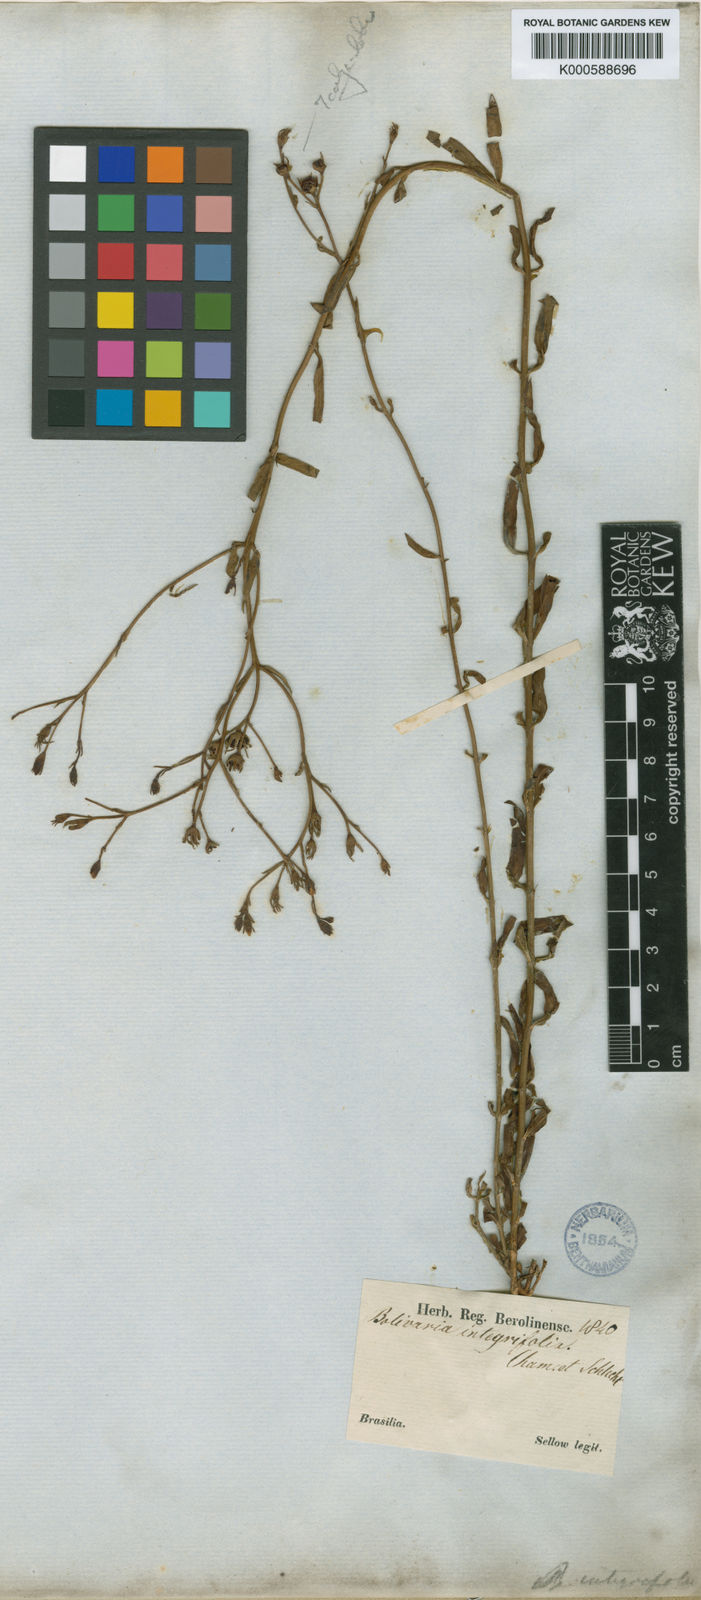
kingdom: Plantae
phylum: Tracheophyta
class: Magnoliopsida
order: Lamiales
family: Oleaceae
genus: Menodora
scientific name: Menodora integrifolia
